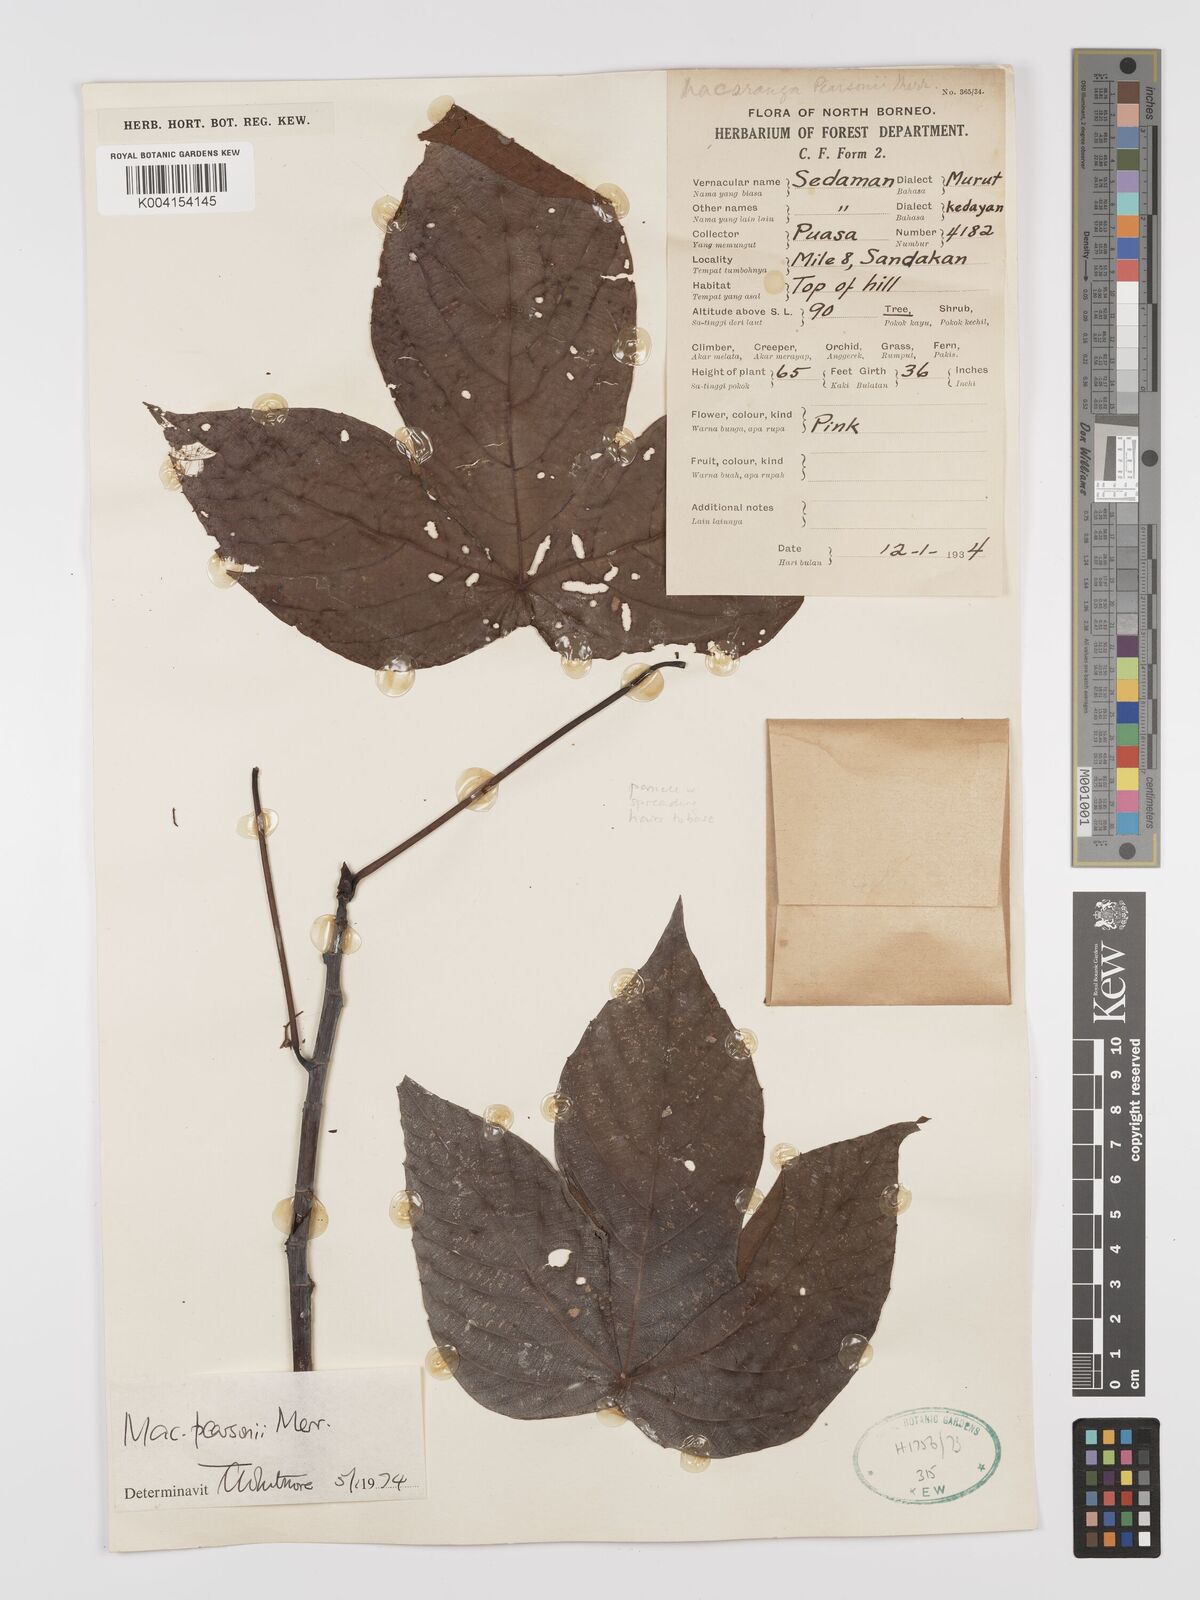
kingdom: Plantae
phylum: Tracheophyta
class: Magnoliopsida
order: Malpighiales
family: Euphorbiaceae
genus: Macaranga
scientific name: Macaranga pearsonii
